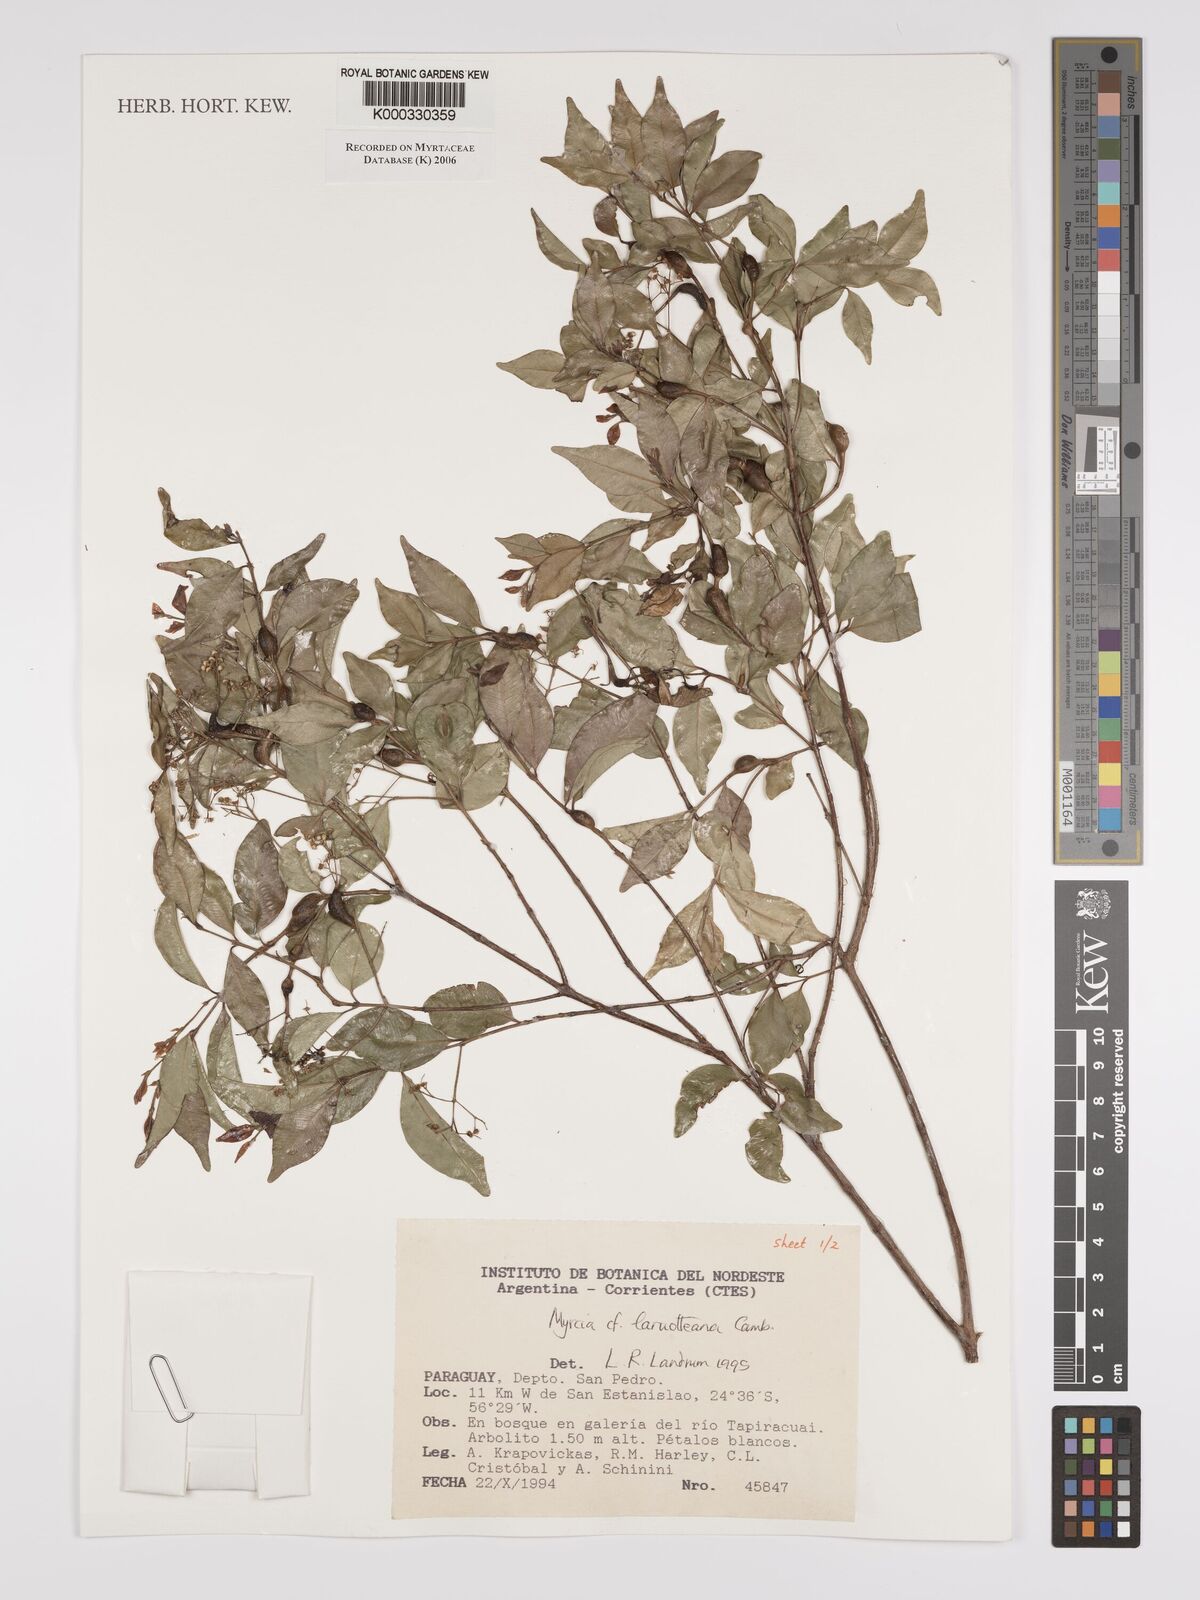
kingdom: Plantae
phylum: Tracheophyta
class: Magnoliopsida
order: Myrtales
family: Myrtaceae
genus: Myrcia
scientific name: Myrcia laruotteana
